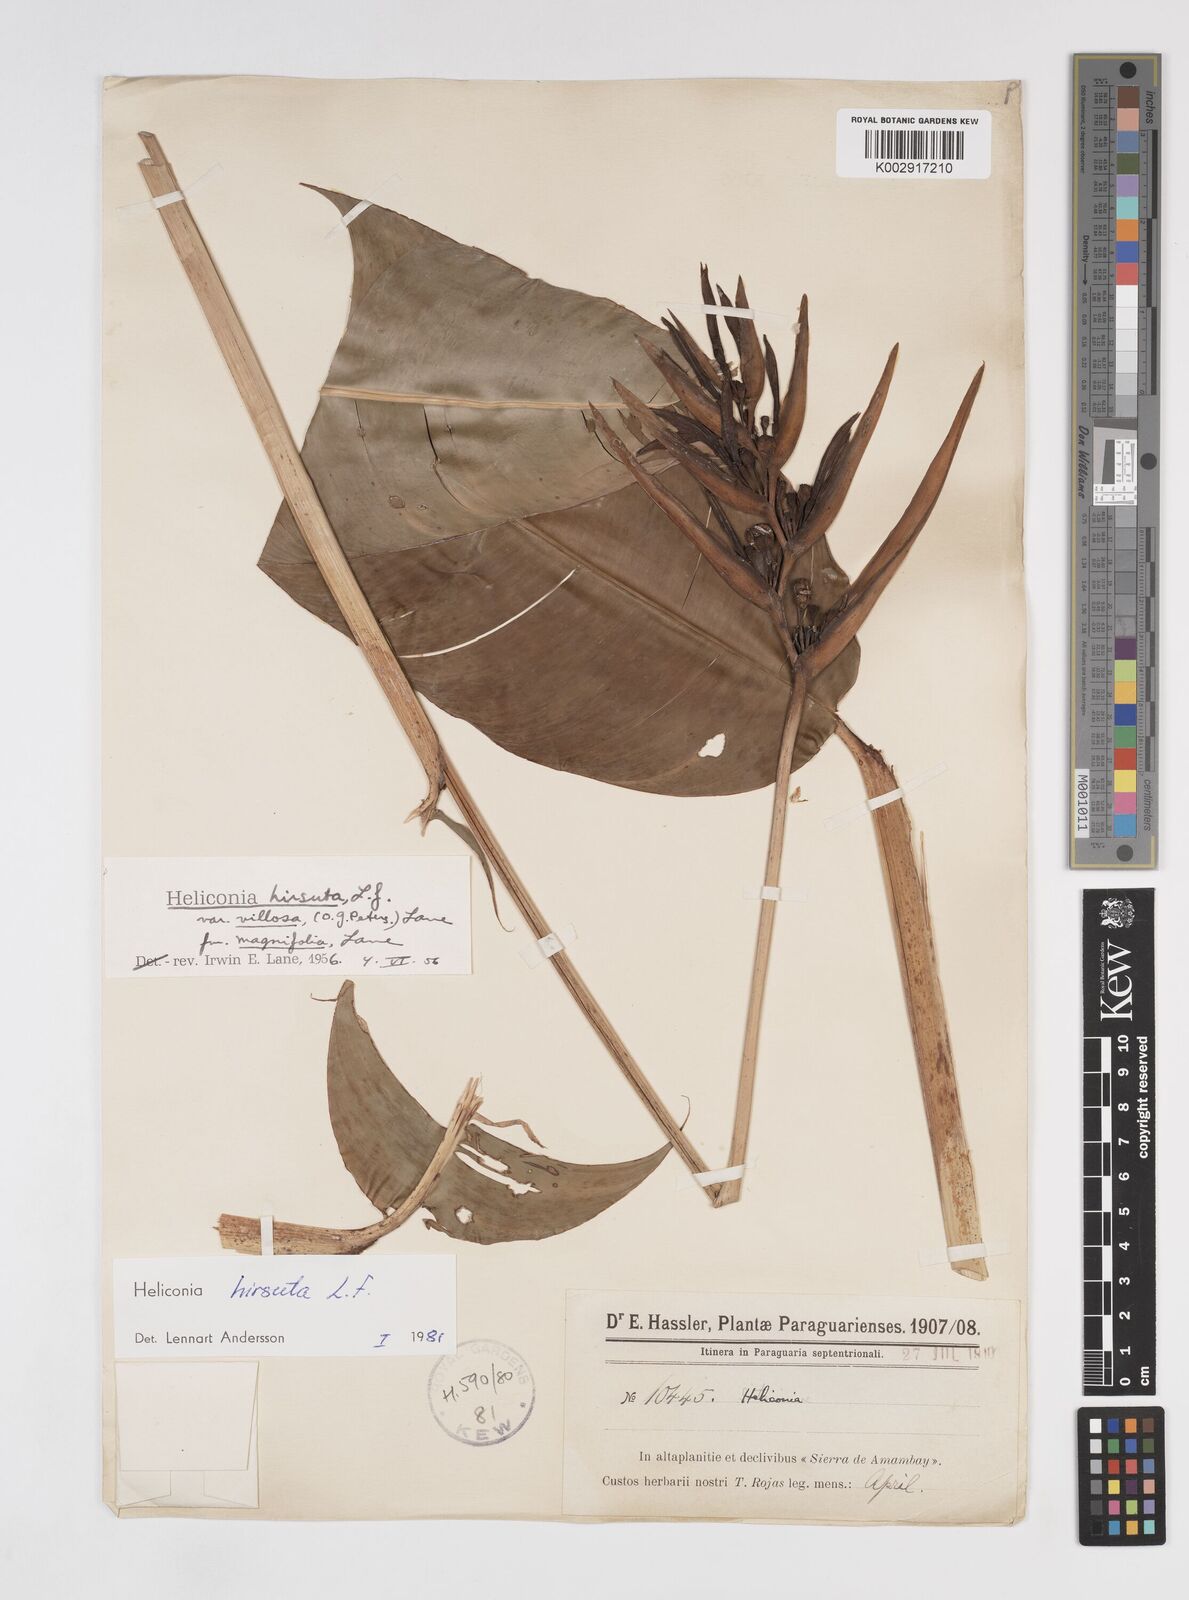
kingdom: Plantae
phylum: Tracheophyta
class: Liliopsida
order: Zingiberales
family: Heliconiaceae
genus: Heliconia
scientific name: Heliconia hirsuta
